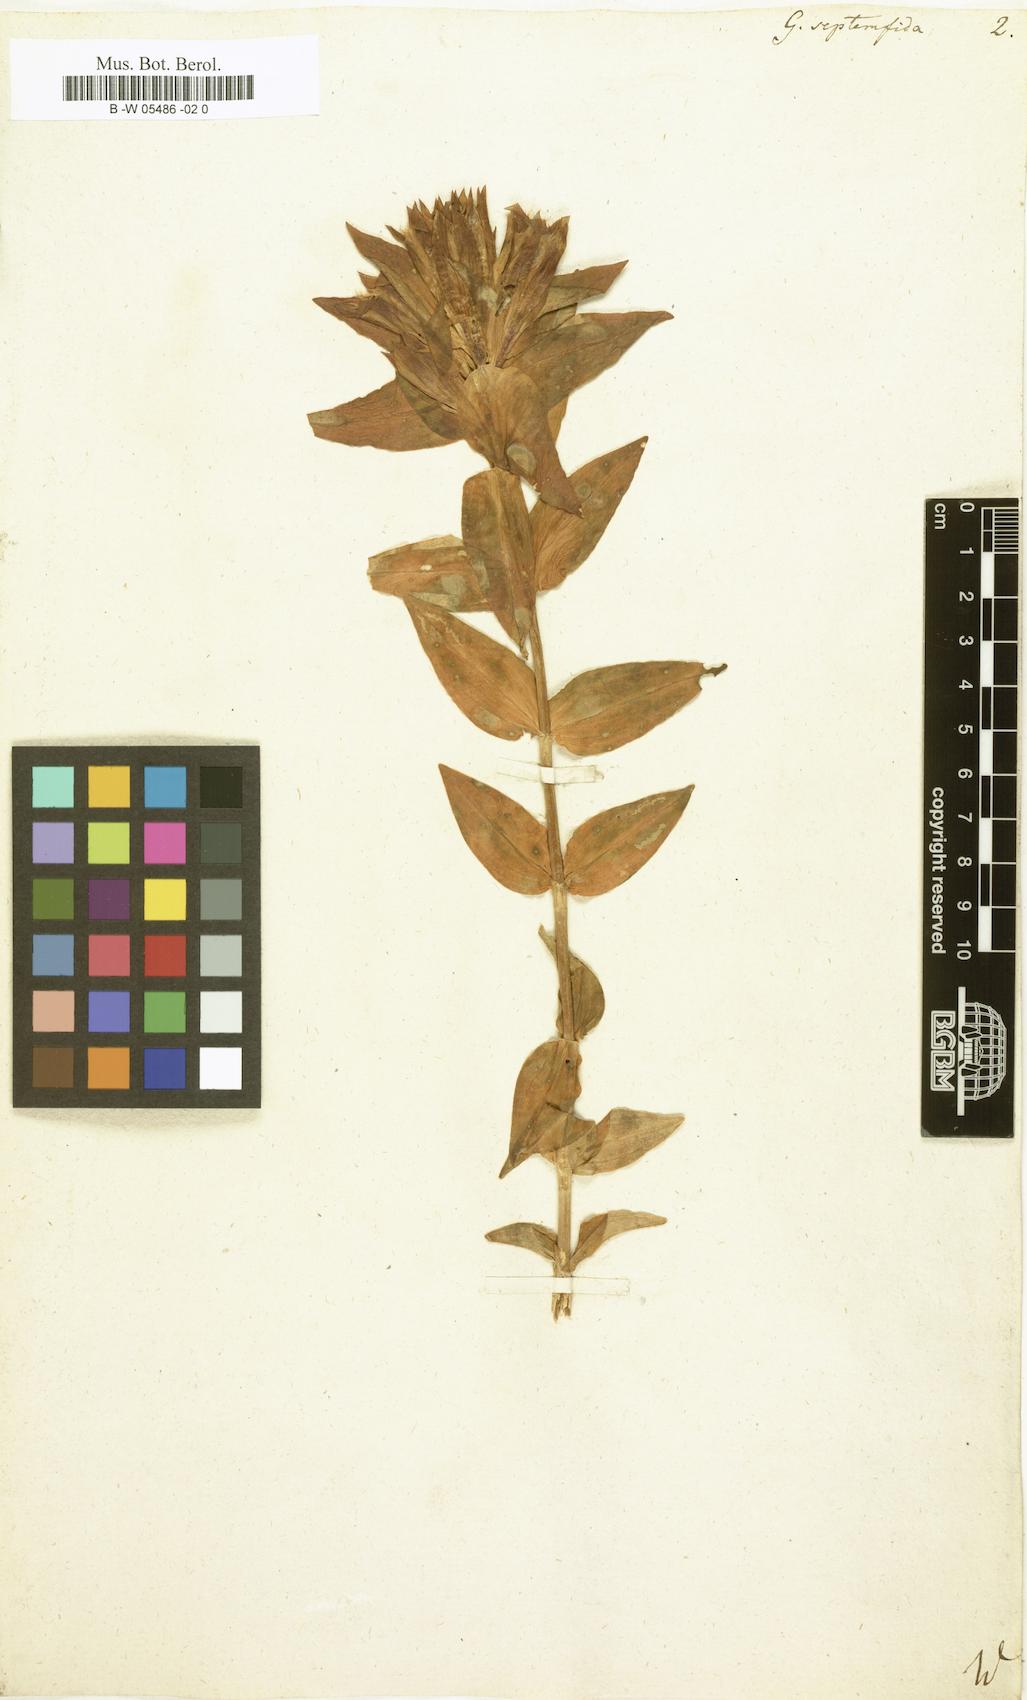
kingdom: Plantae
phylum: Tracheophyta
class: Magnoliopsida
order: Gentianales
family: Gentianaceae
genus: Gentiana
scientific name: Gentiana septemfida
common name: Crested gentian
